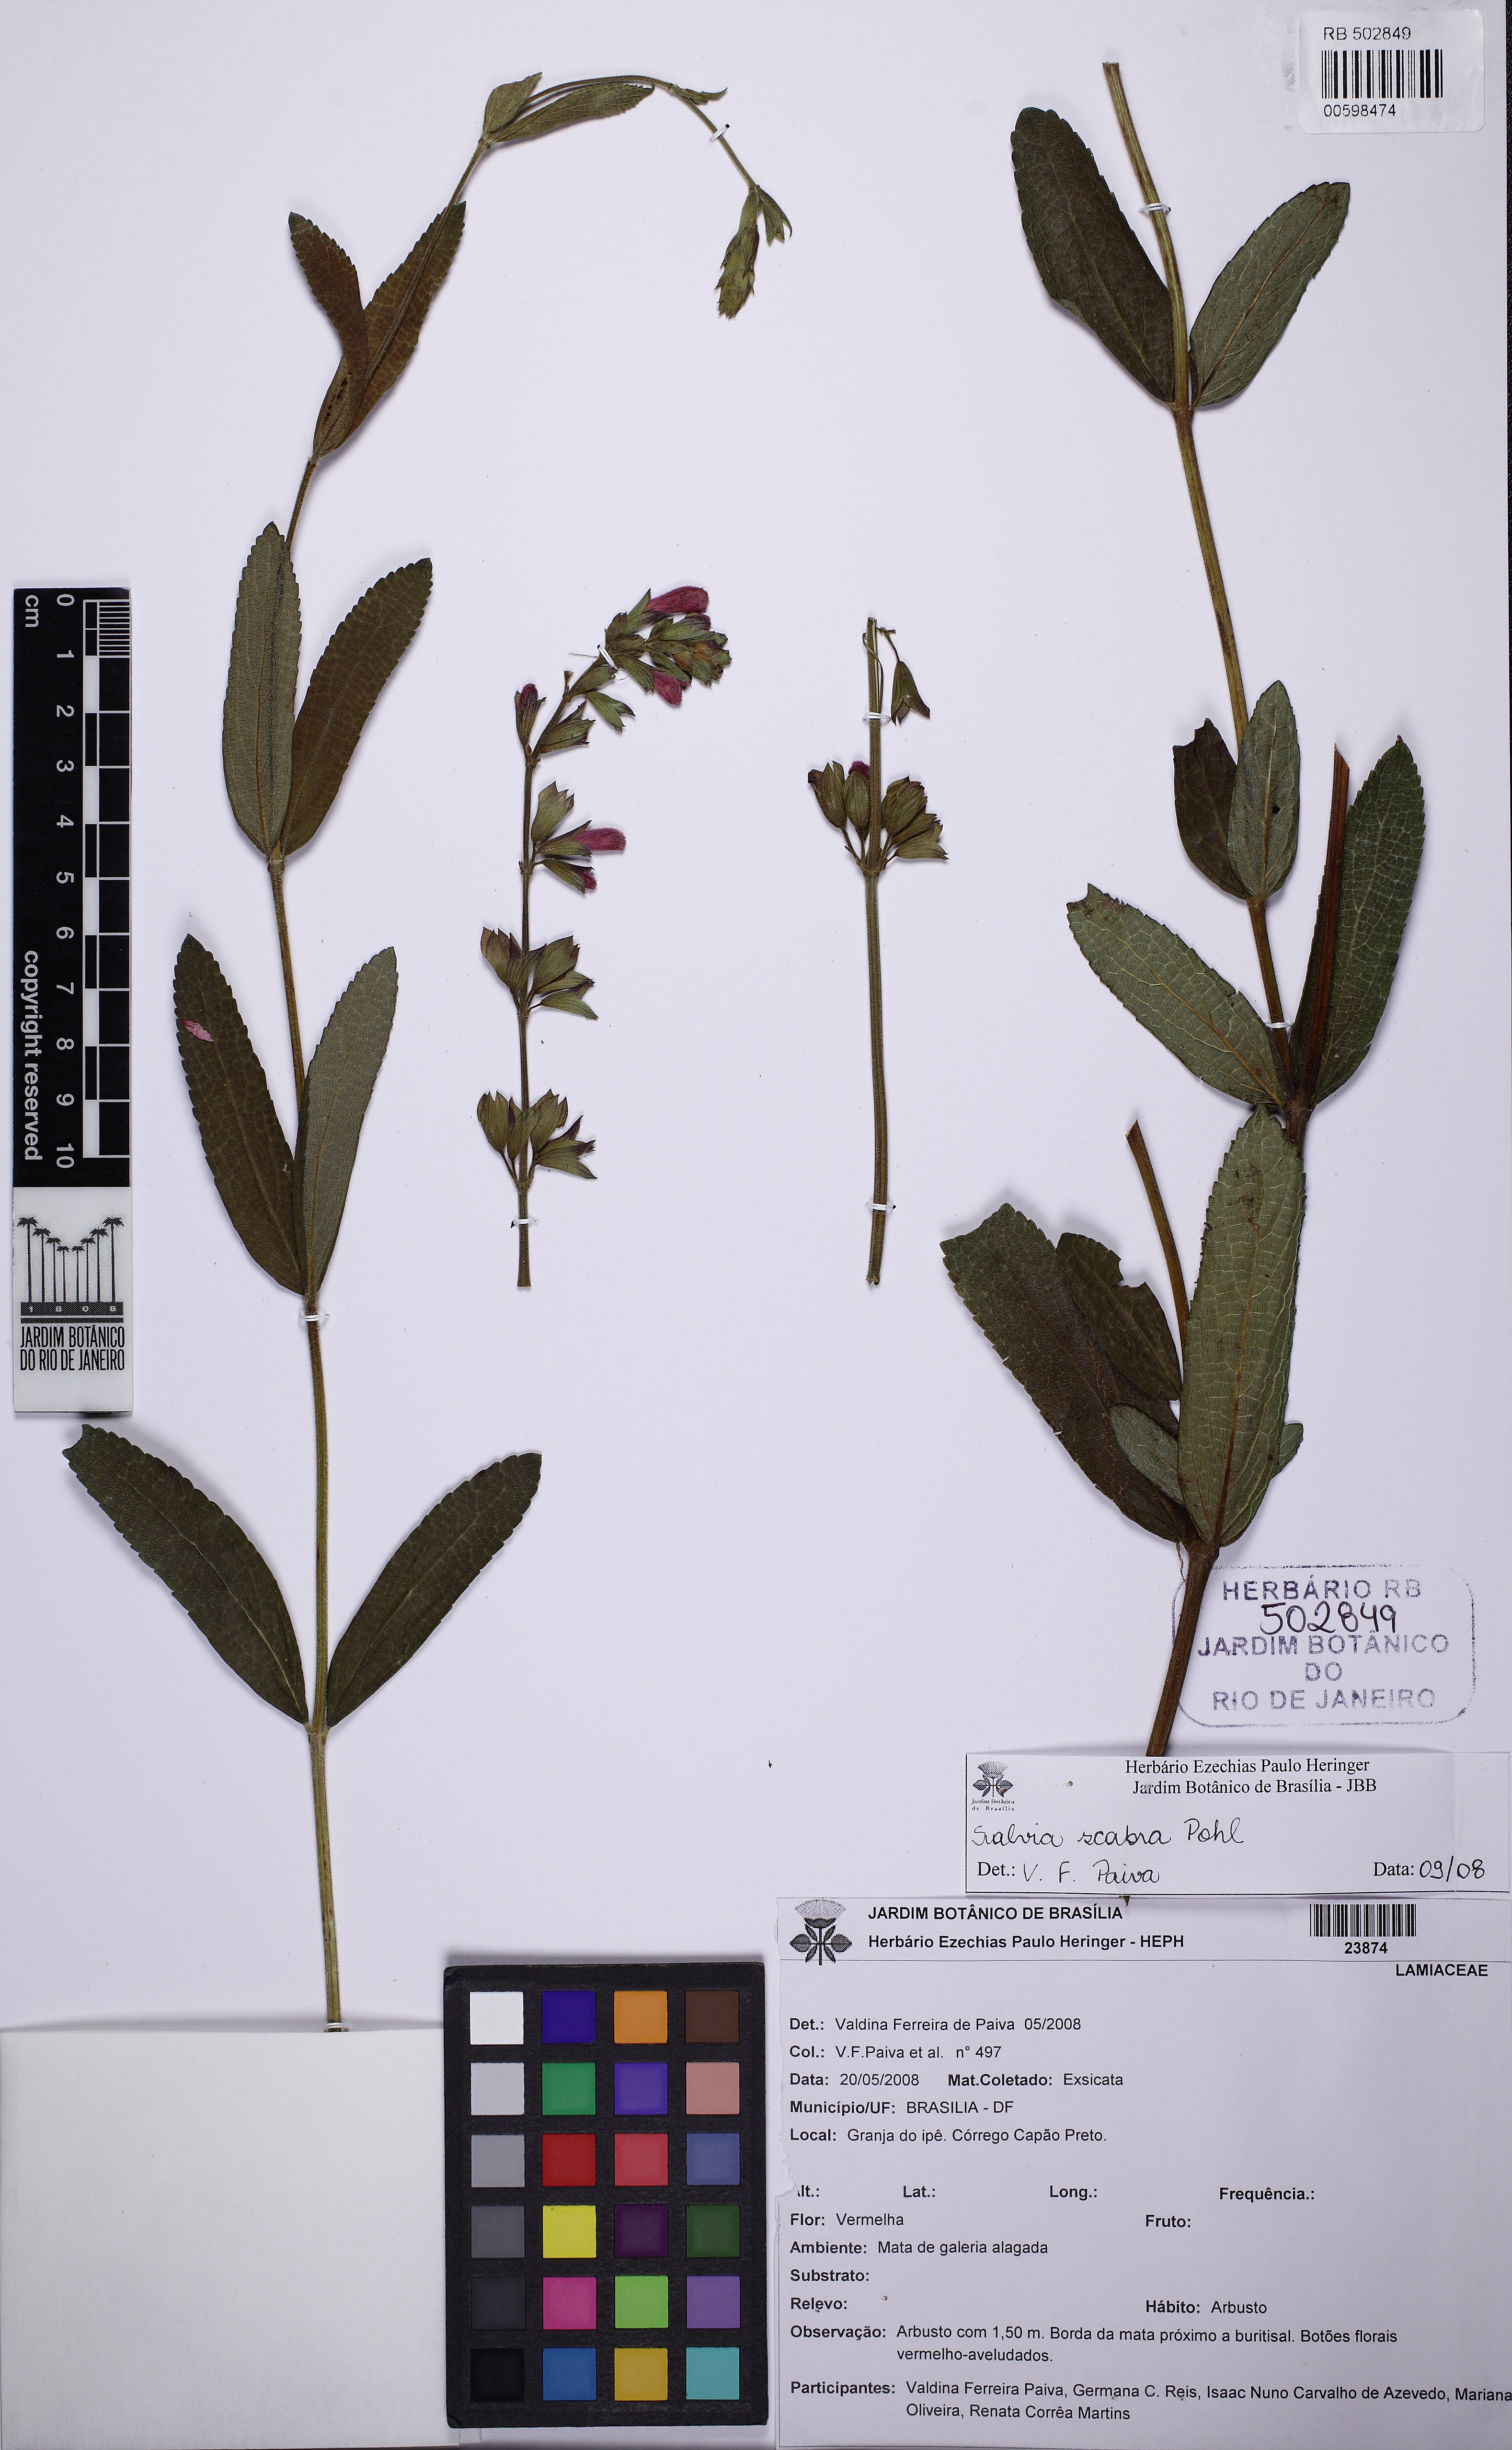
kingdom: Plantae
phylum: Tracheophyta
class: Magnoliopsida
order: Lamiales
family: Lamiaceae
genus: Salvia
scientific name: Salvia scabrida
